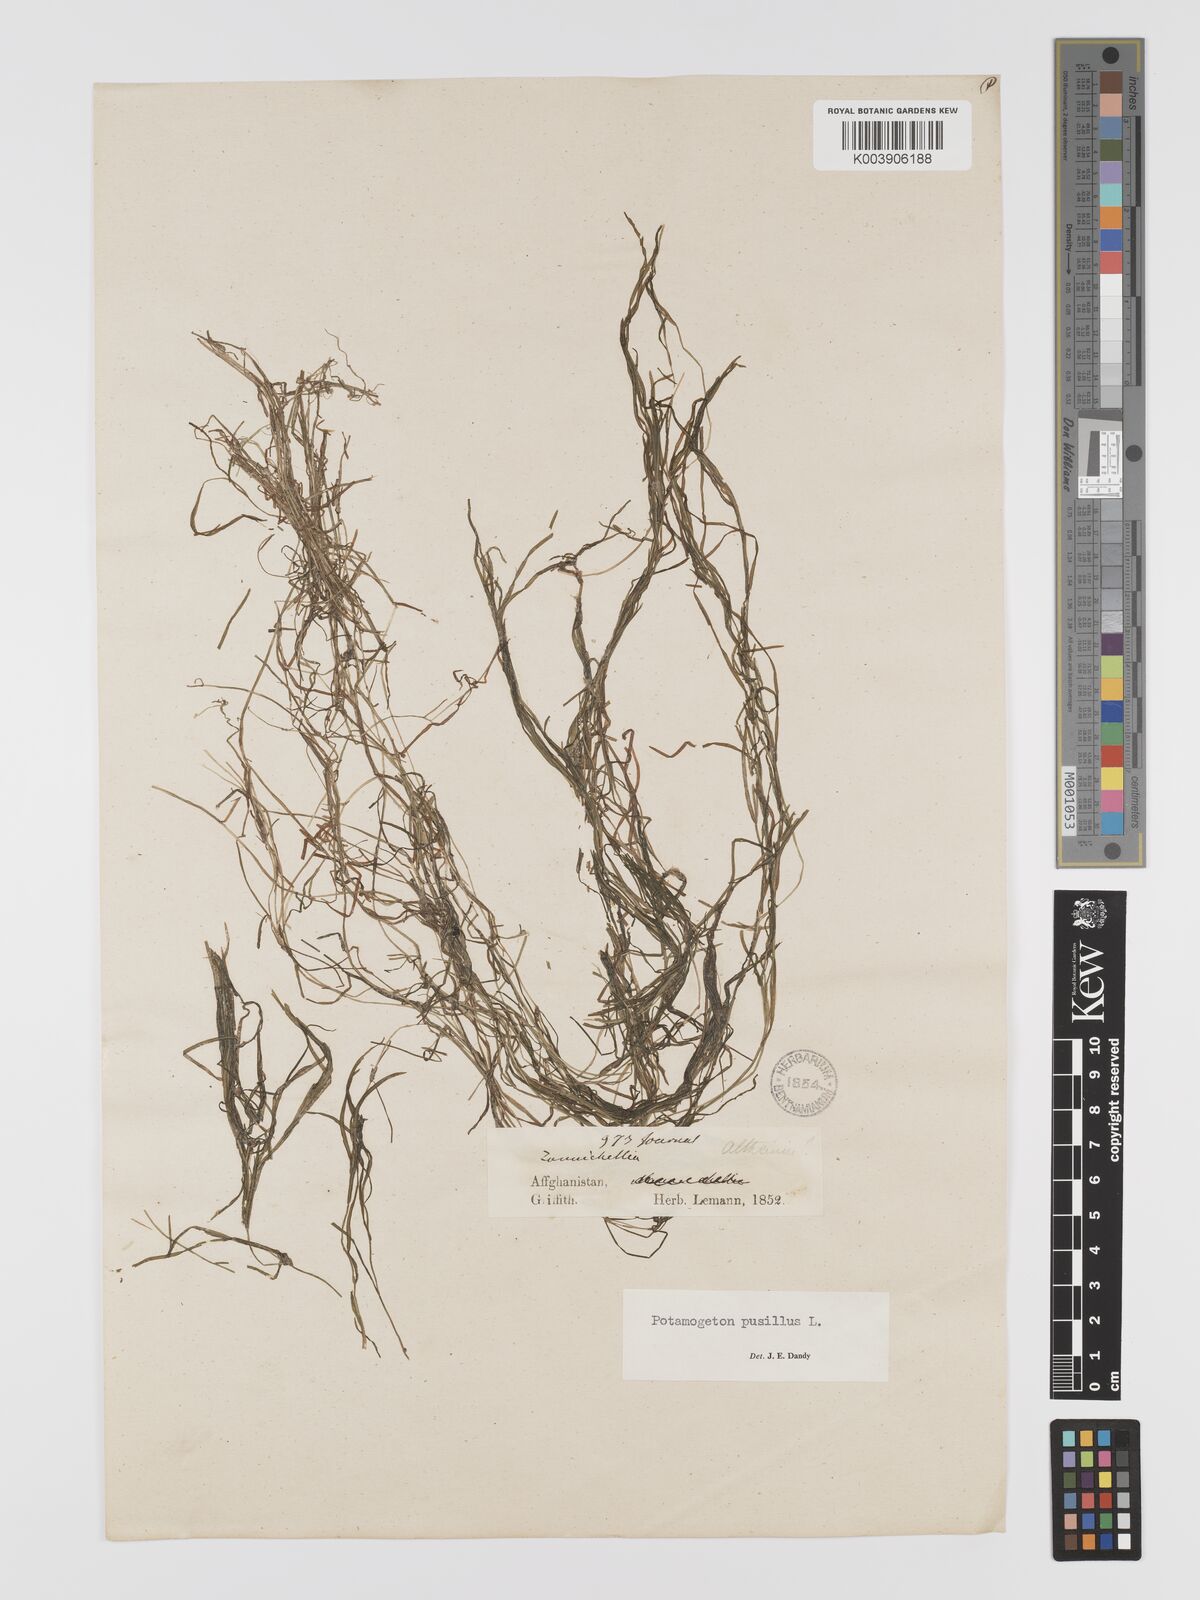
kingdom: Plantae
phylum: Tracheophyta
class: Liliopsida
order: Alismatales
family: Potamogetonaceae
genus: Potamogeton
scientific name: Potamogeton pusillus
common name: Lesser pondweed
